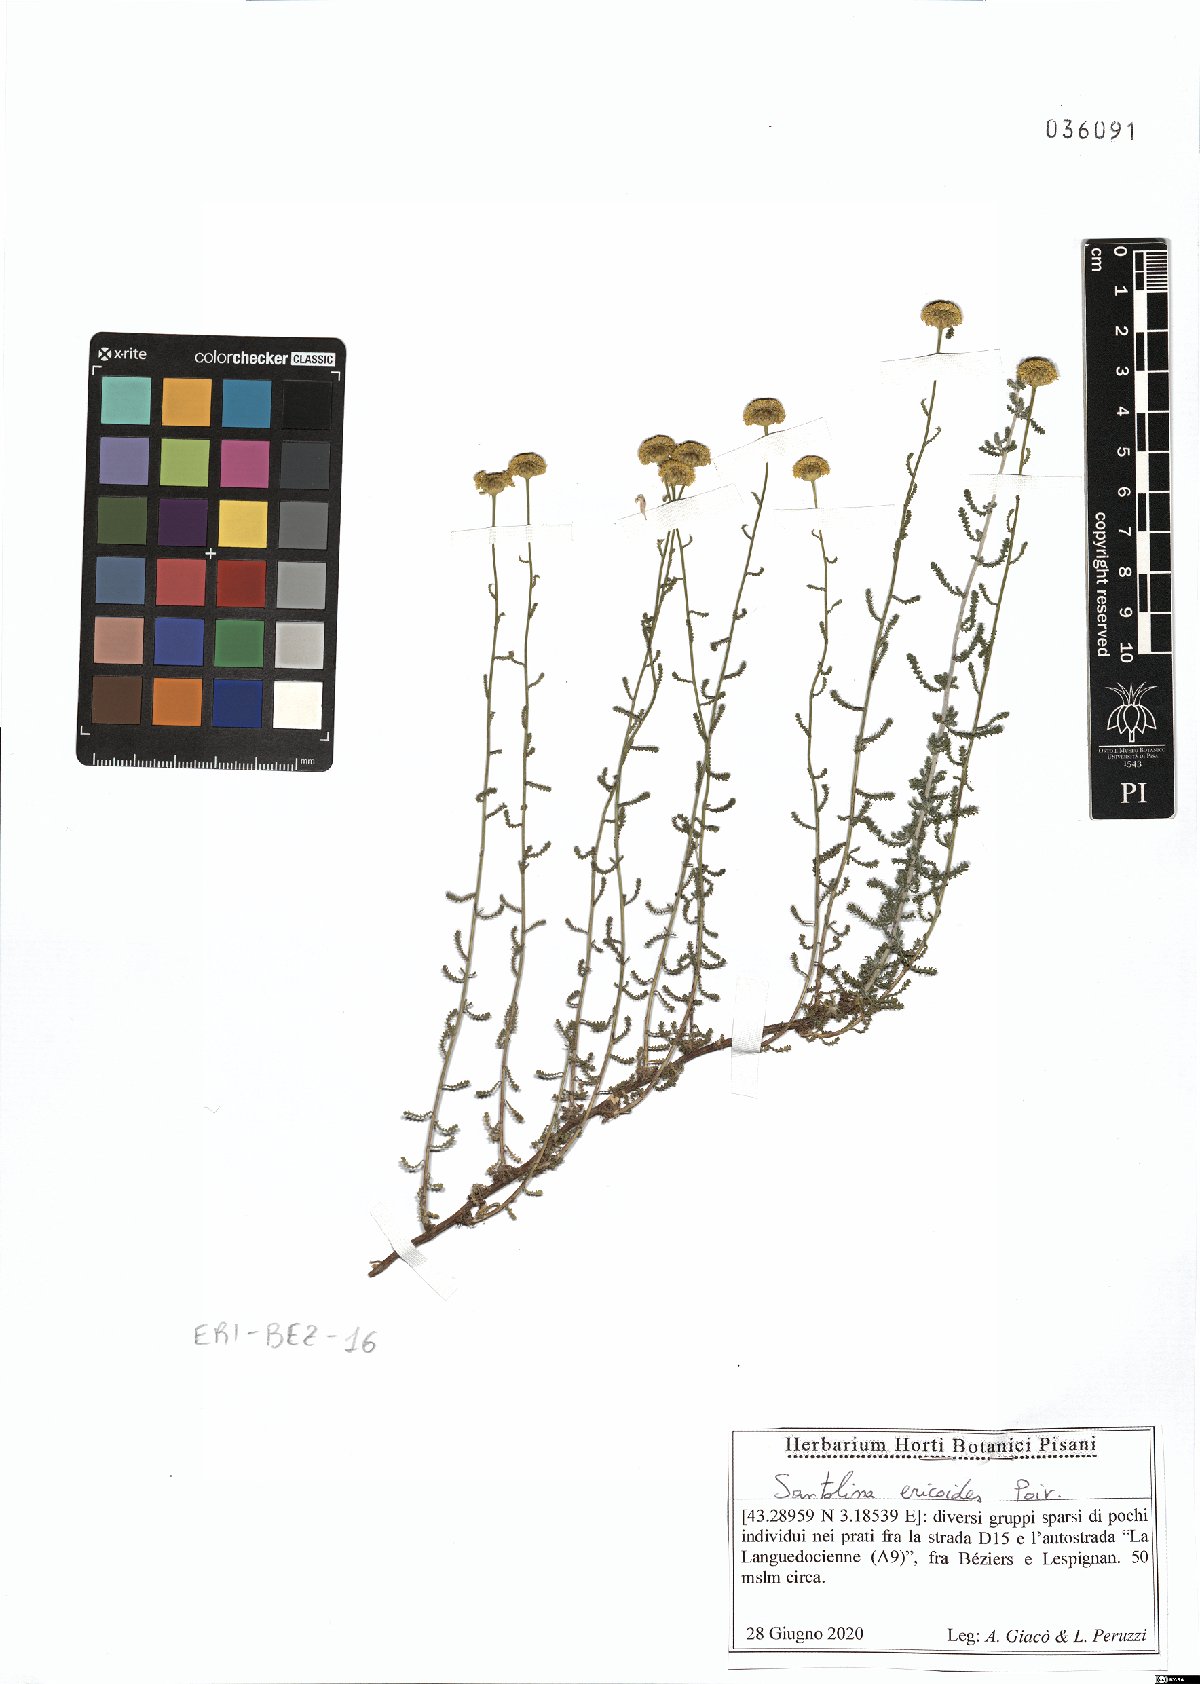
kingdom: Plantae
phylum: Tracheophyta
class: Magnoliopsida
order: Asterales
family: Asteraceae
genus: Santolina
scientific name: Santolina ericoides
